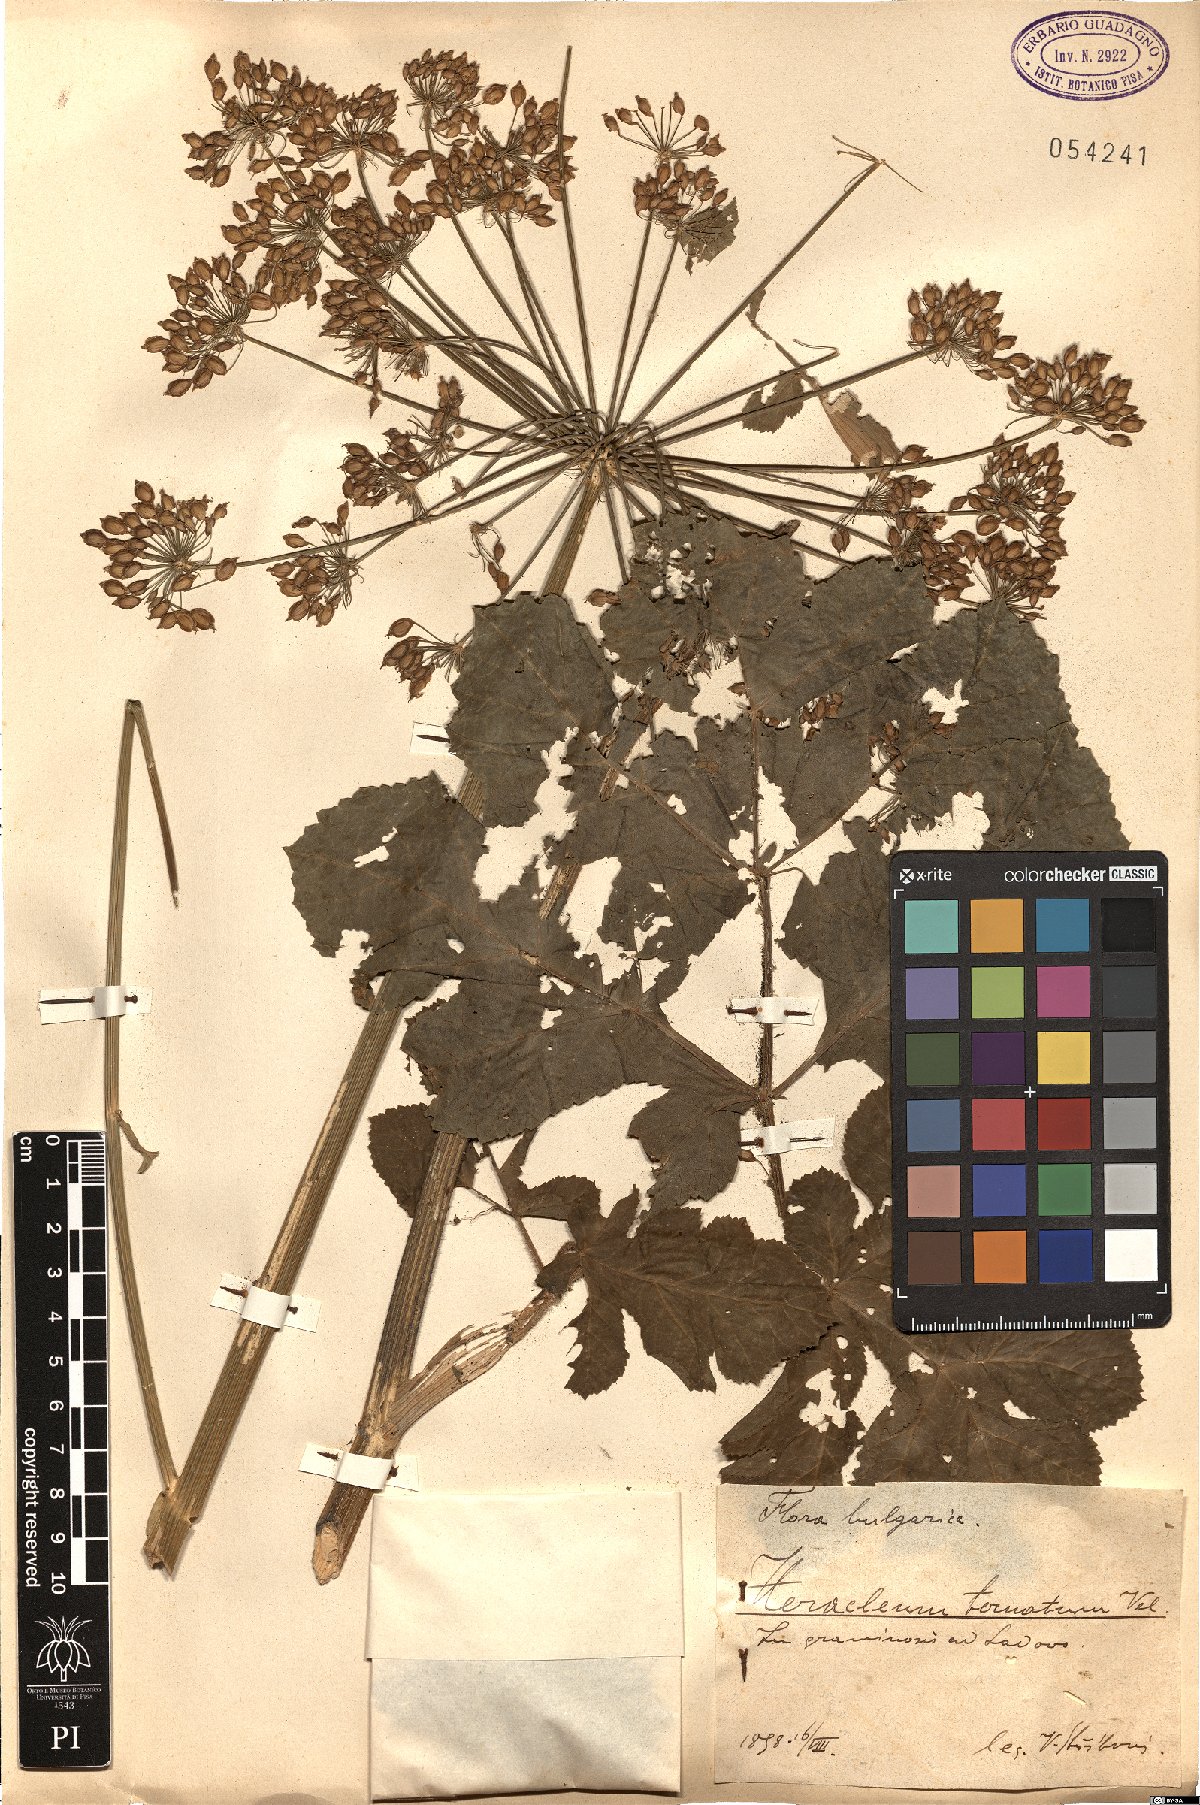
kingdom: Plantae
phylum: Tracheophyta
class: Magnoliopsida
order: Apiales
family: Apiaceae
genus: Heracleum
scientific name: Heracleum sphondylium
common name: Hogweed
